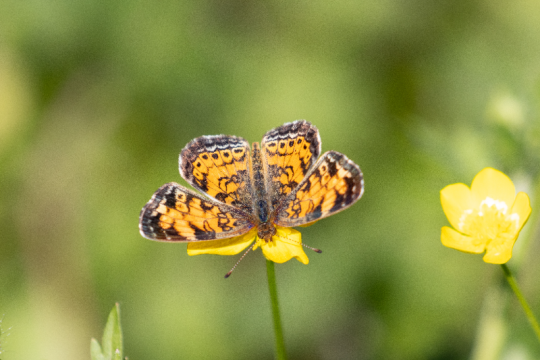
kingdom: Animalia
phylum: Arthropoda
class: Insecta
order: Lepidoptera
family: Nymphalidae
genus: Phyciodes
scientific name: Phyciodes tharos
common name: Pearl Crescent
